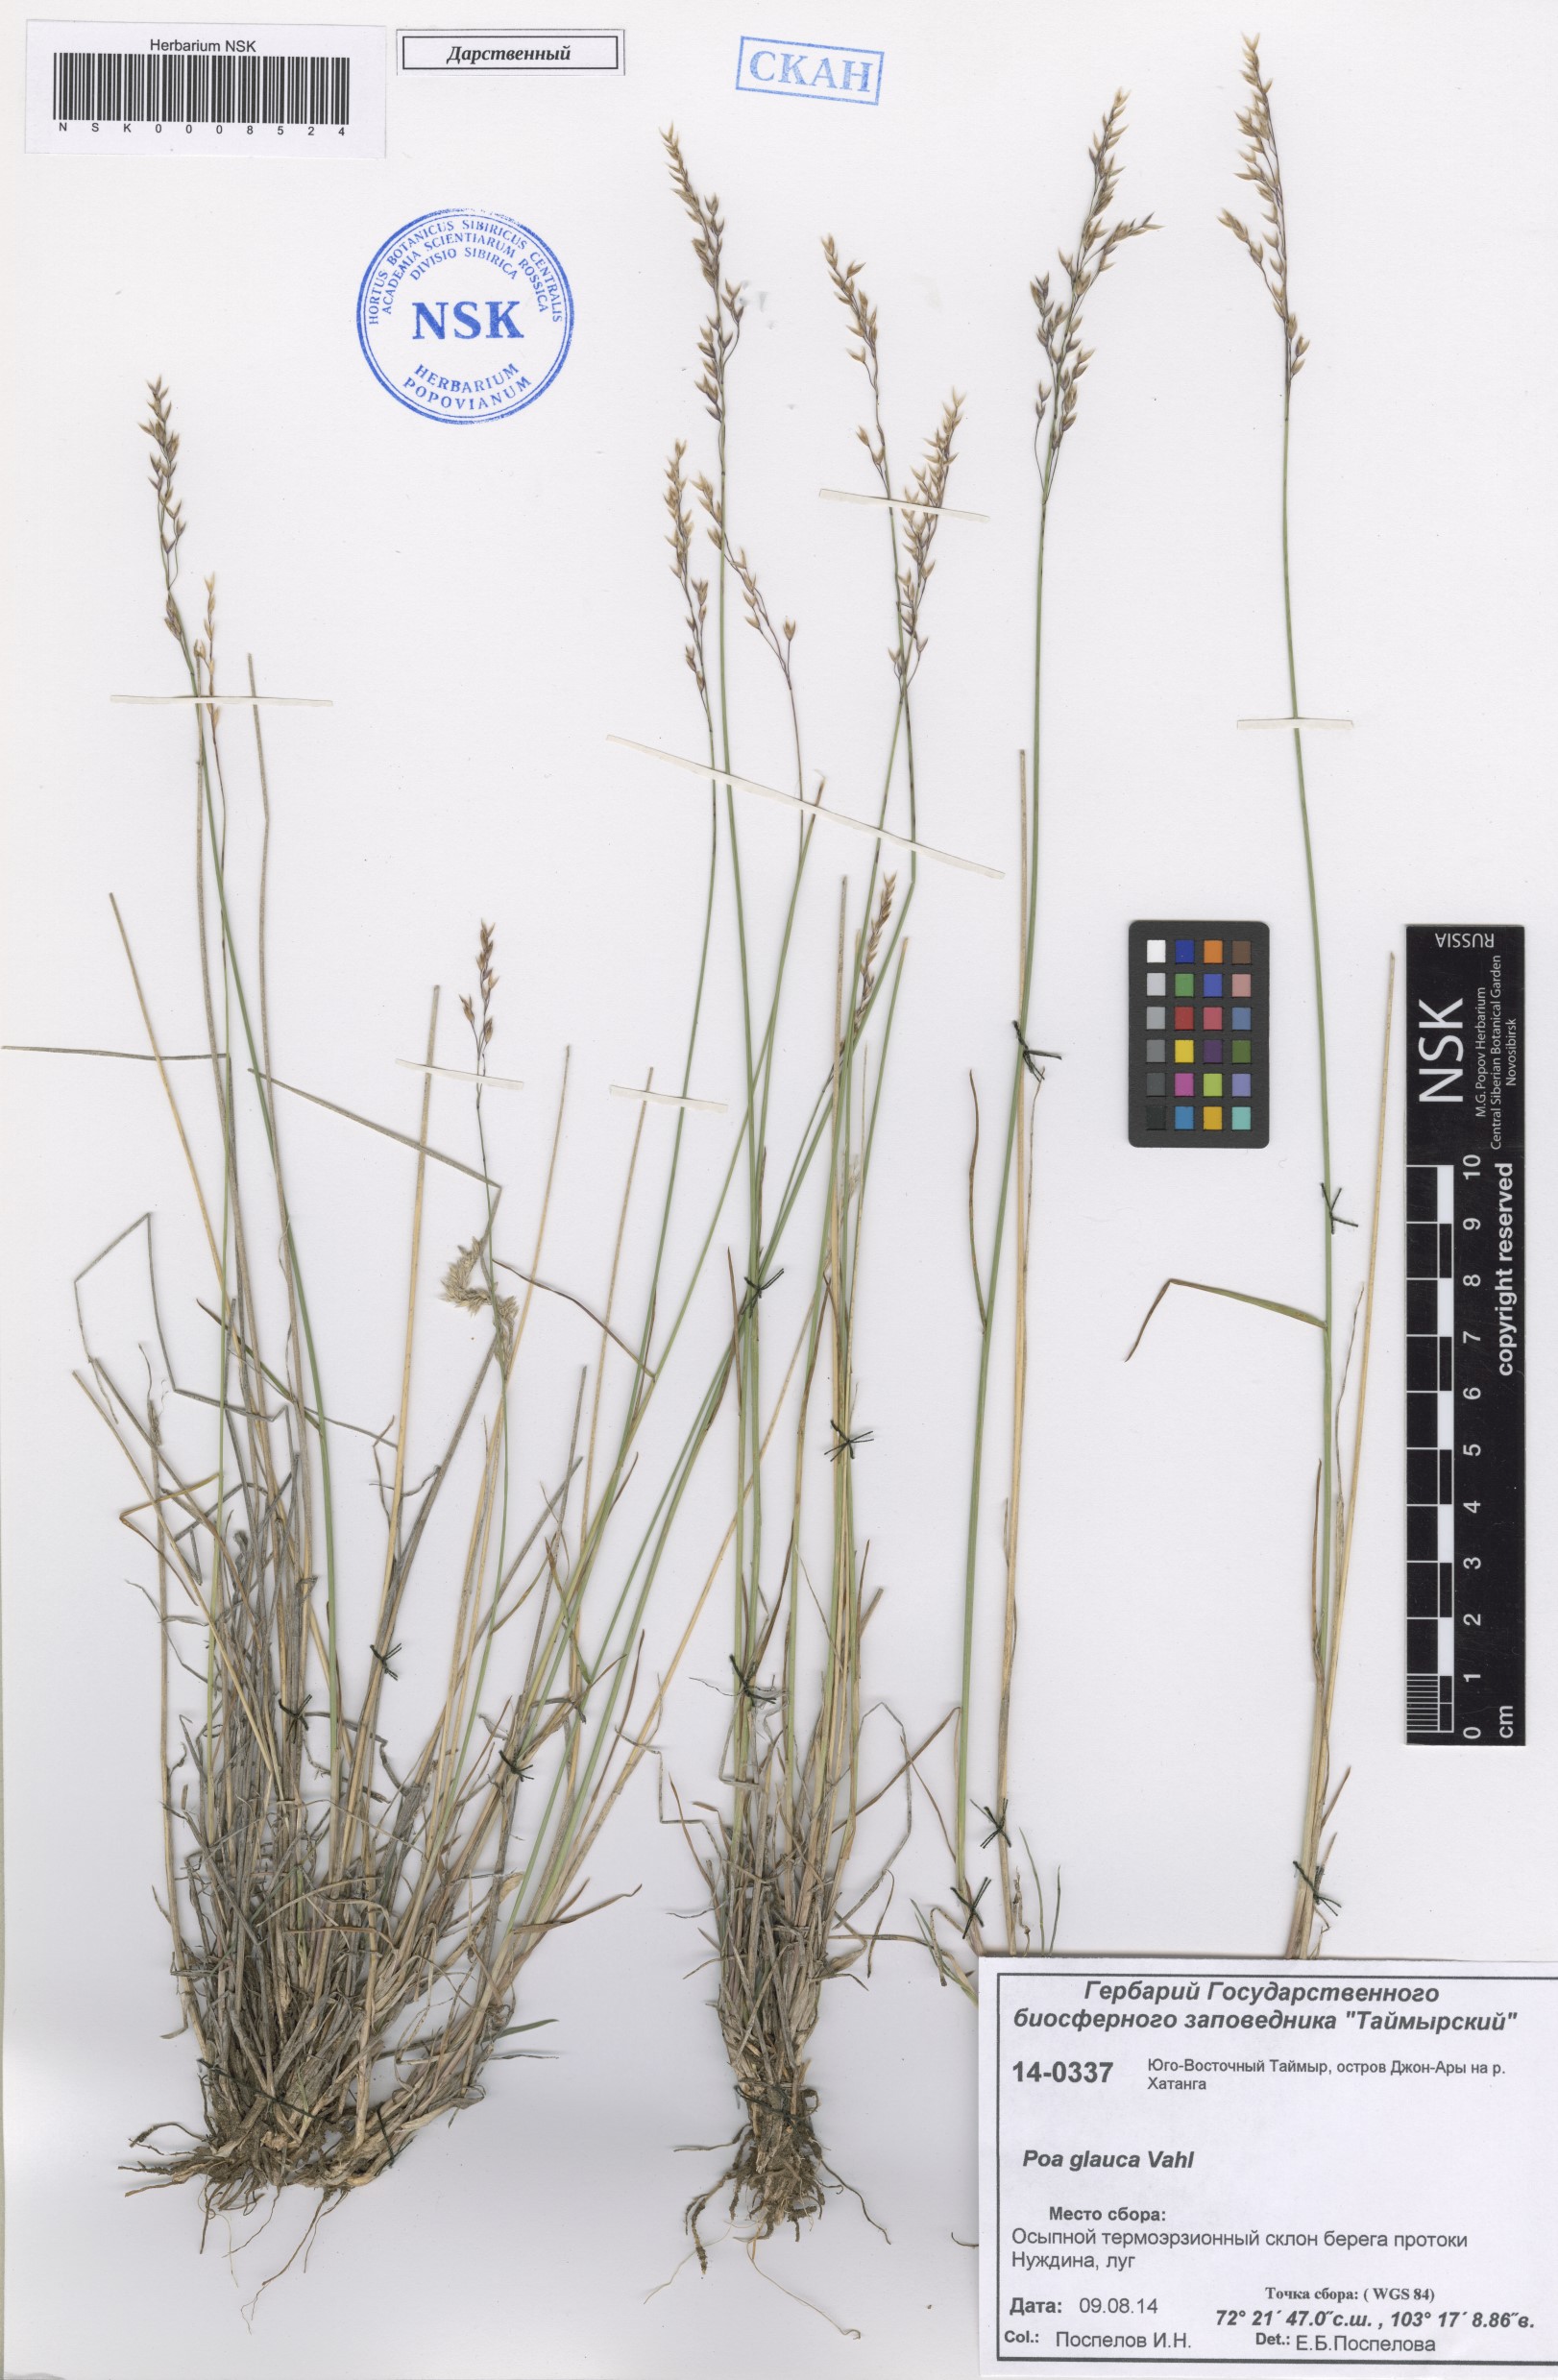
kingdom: Plantae
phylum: Tracheophyta
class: Liliopsida
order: Poales
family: Poaceae
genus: Poa
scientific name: Poa glauca
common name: Glaucous bluegrass
